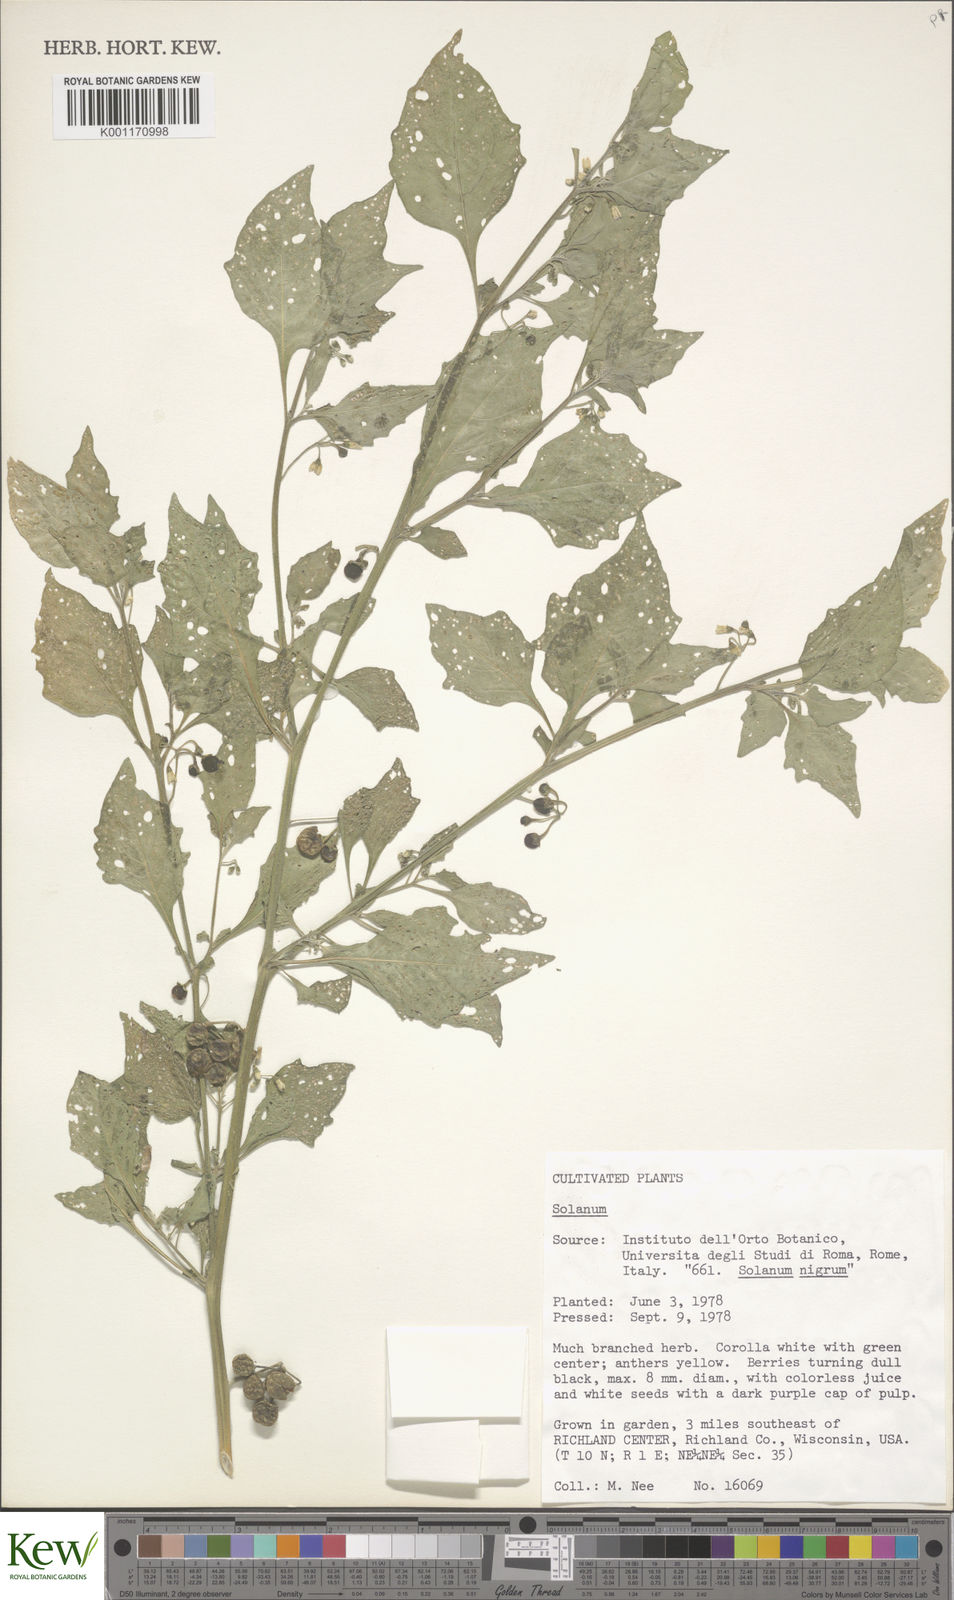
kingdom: Plantae
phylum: Tracheophyta
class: Magnoliopsida
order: Solanales
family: Solanaceae
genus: Solanum
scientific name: Solanum
